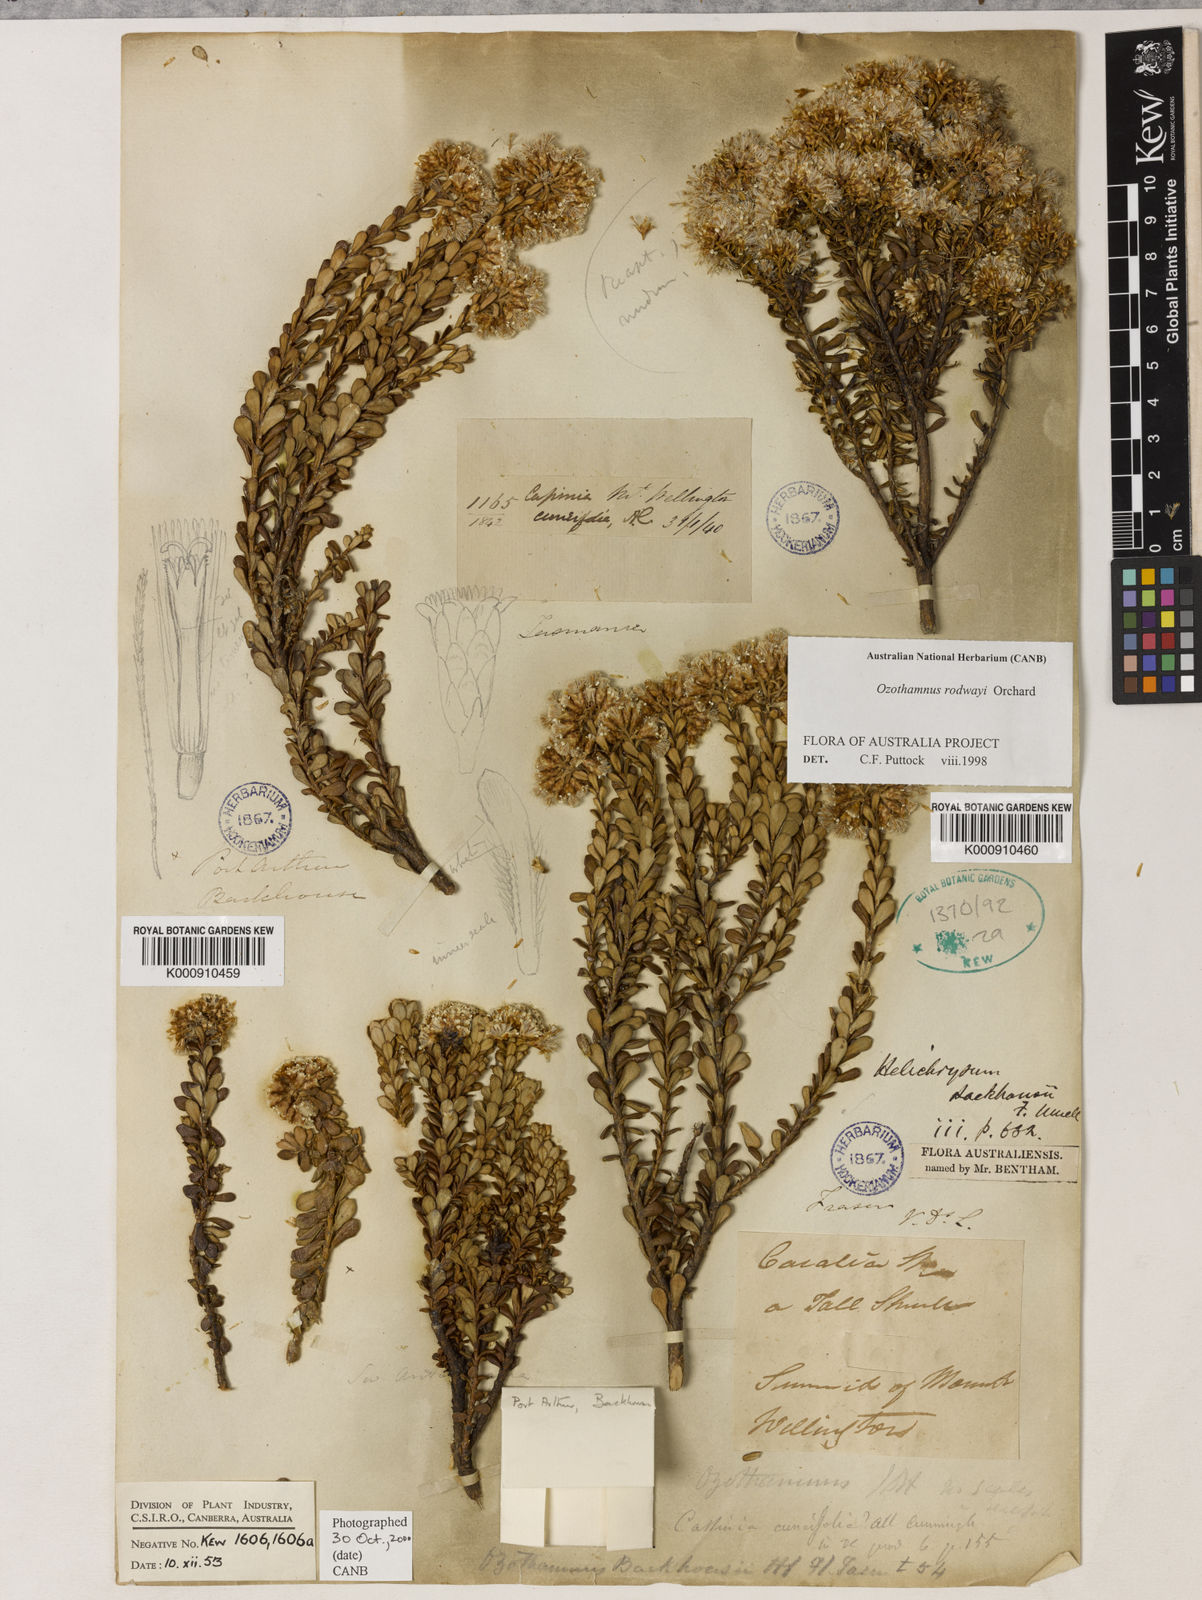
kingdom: Plantae
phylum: Tracheophyta
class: Magnoliopsida
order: Asterales
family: Asteraceae
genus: Ozothamnus
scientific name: Ozothamnus rodwayi
